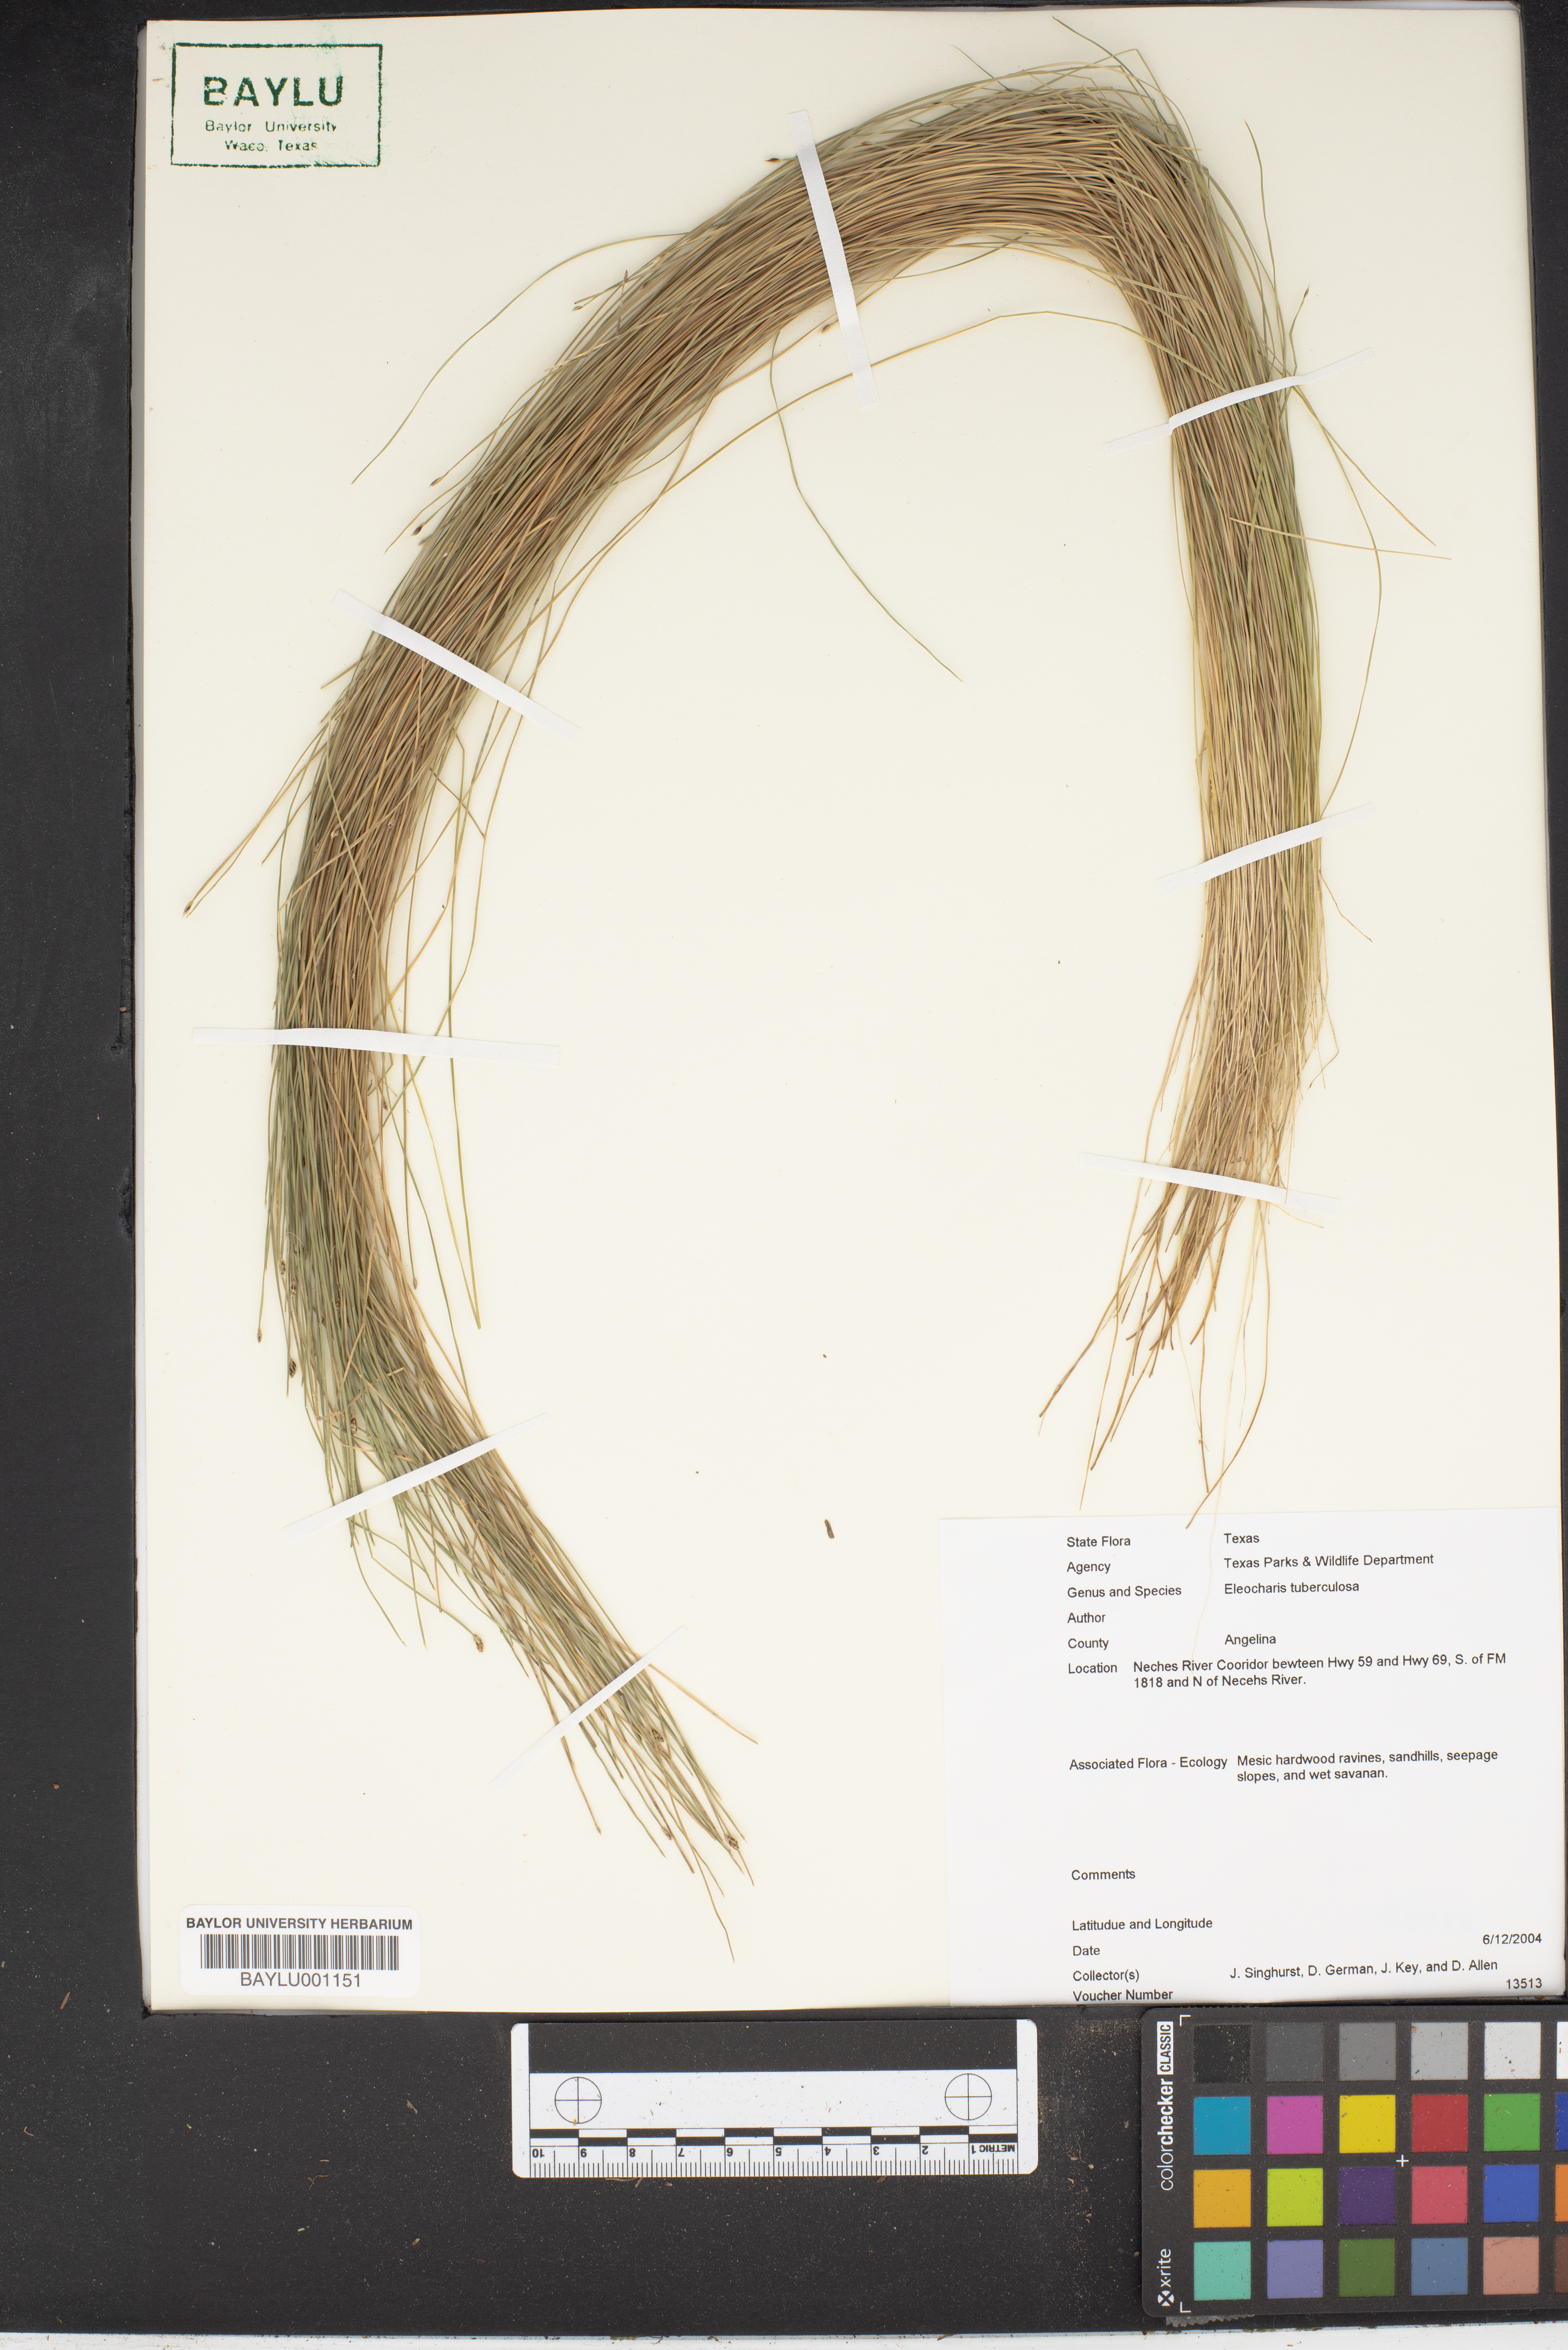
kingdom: Plantae
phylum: Tracheophyta
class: Liliopsida
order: Poales
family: Cyperaceae
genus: Eleocharis
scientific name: Eleocharis tuberculosa
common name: Cone-cup spikerush
